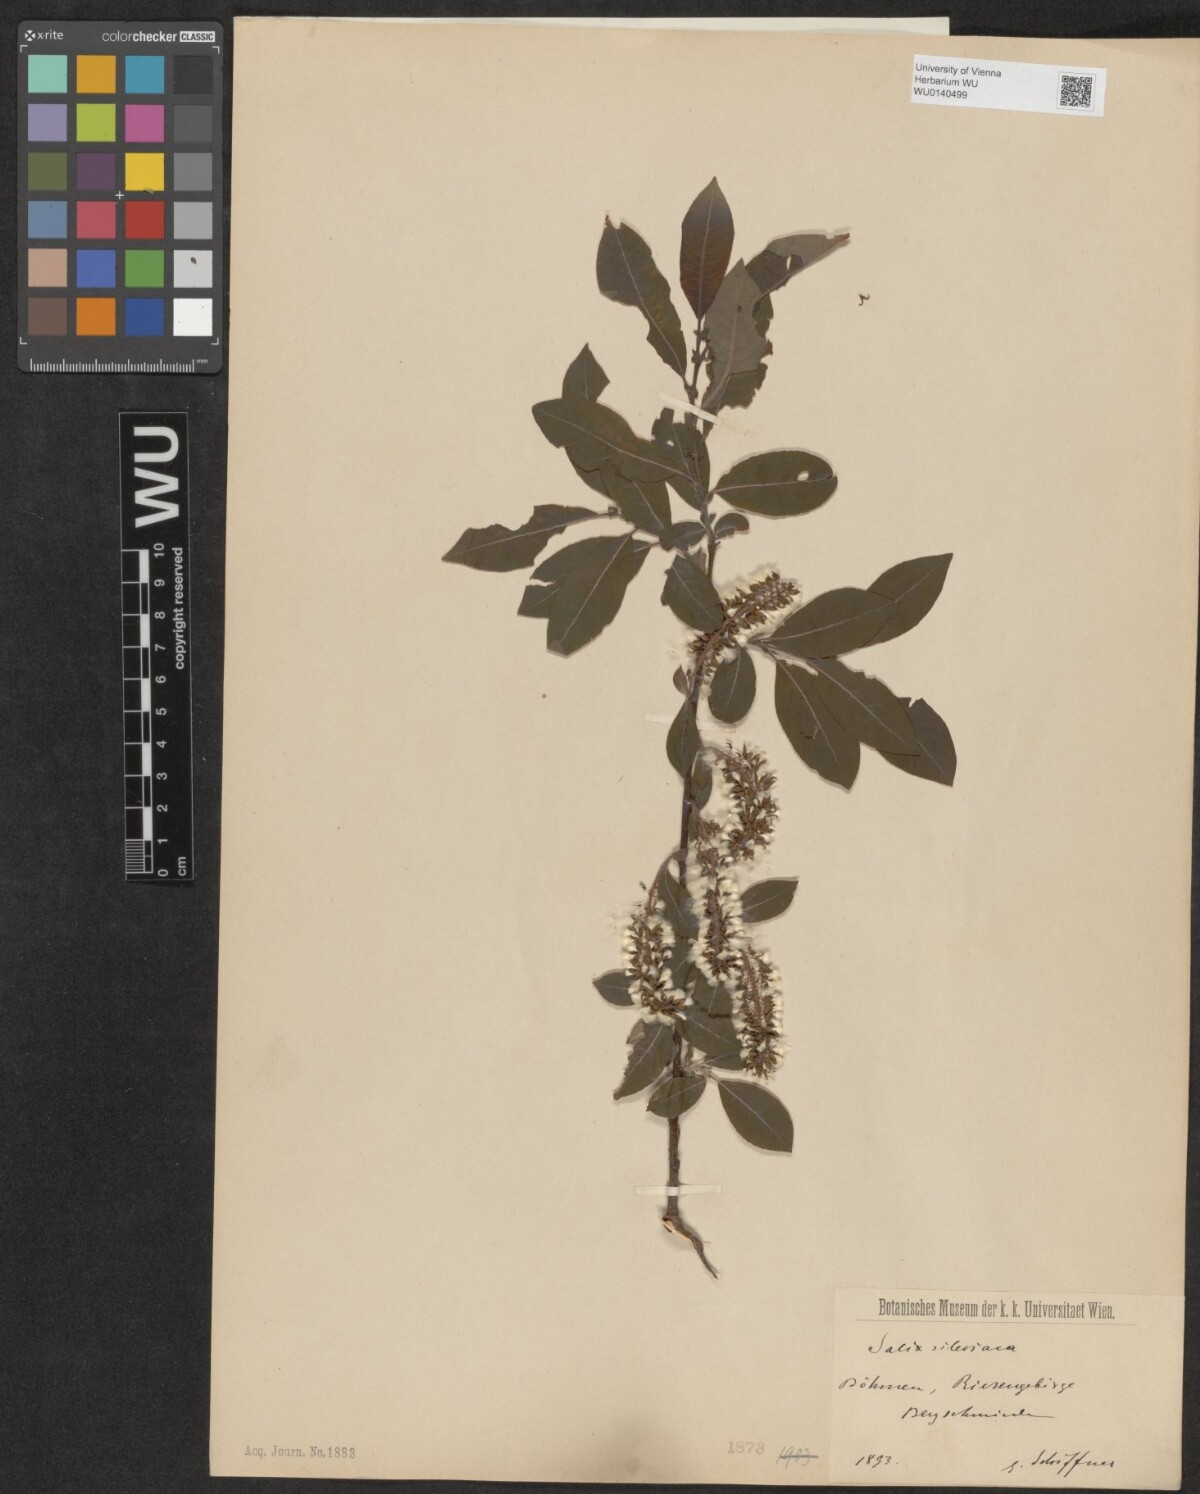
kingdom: Plantae
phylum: Tracheophyta
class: Magnoliopsida
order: Malpighiales
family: Salicaceae
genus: Salix
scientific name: Salix silesiaca
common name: Silesian willow
